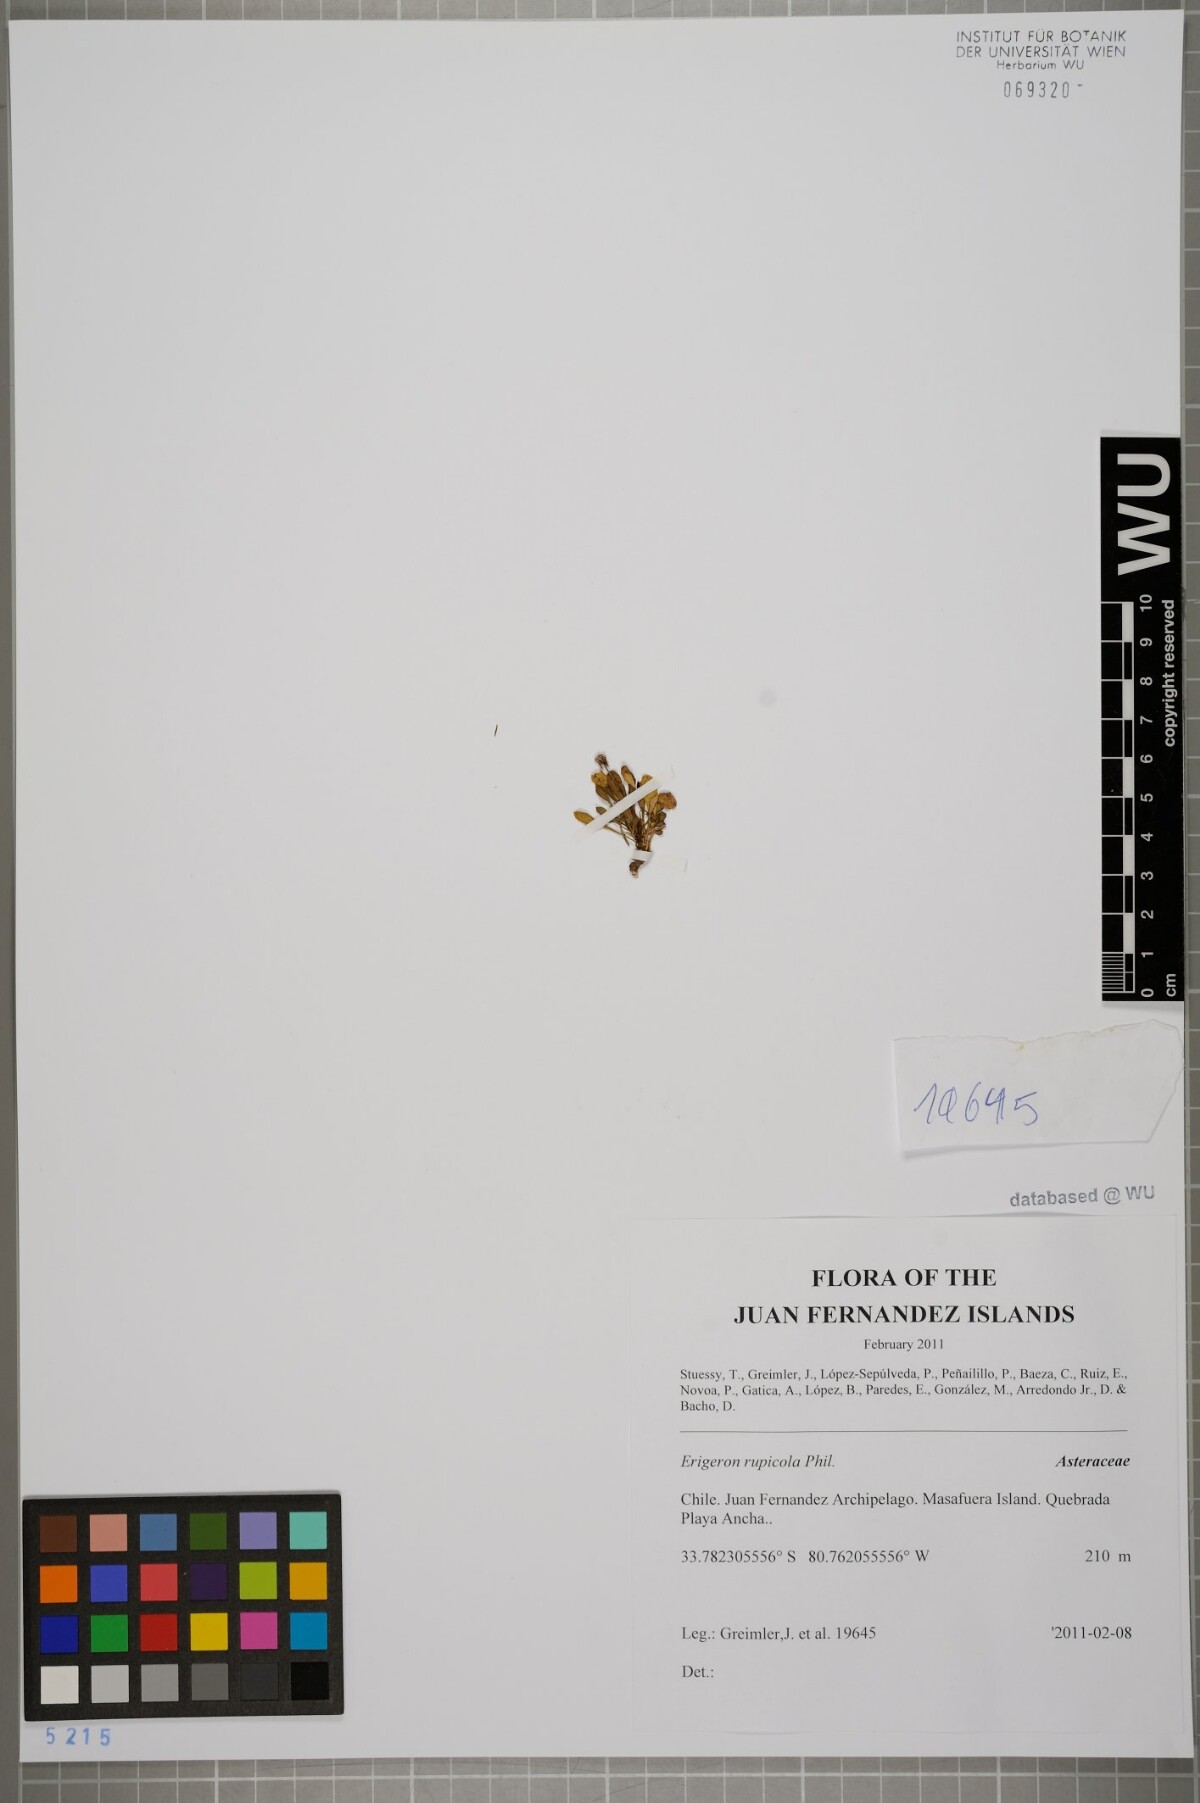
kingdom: Plantae
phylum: Tracheophyta
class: Magnoliopsida
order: Asterales
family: Asteraceae
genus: Erigeron
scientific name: Erigeron rupicola
